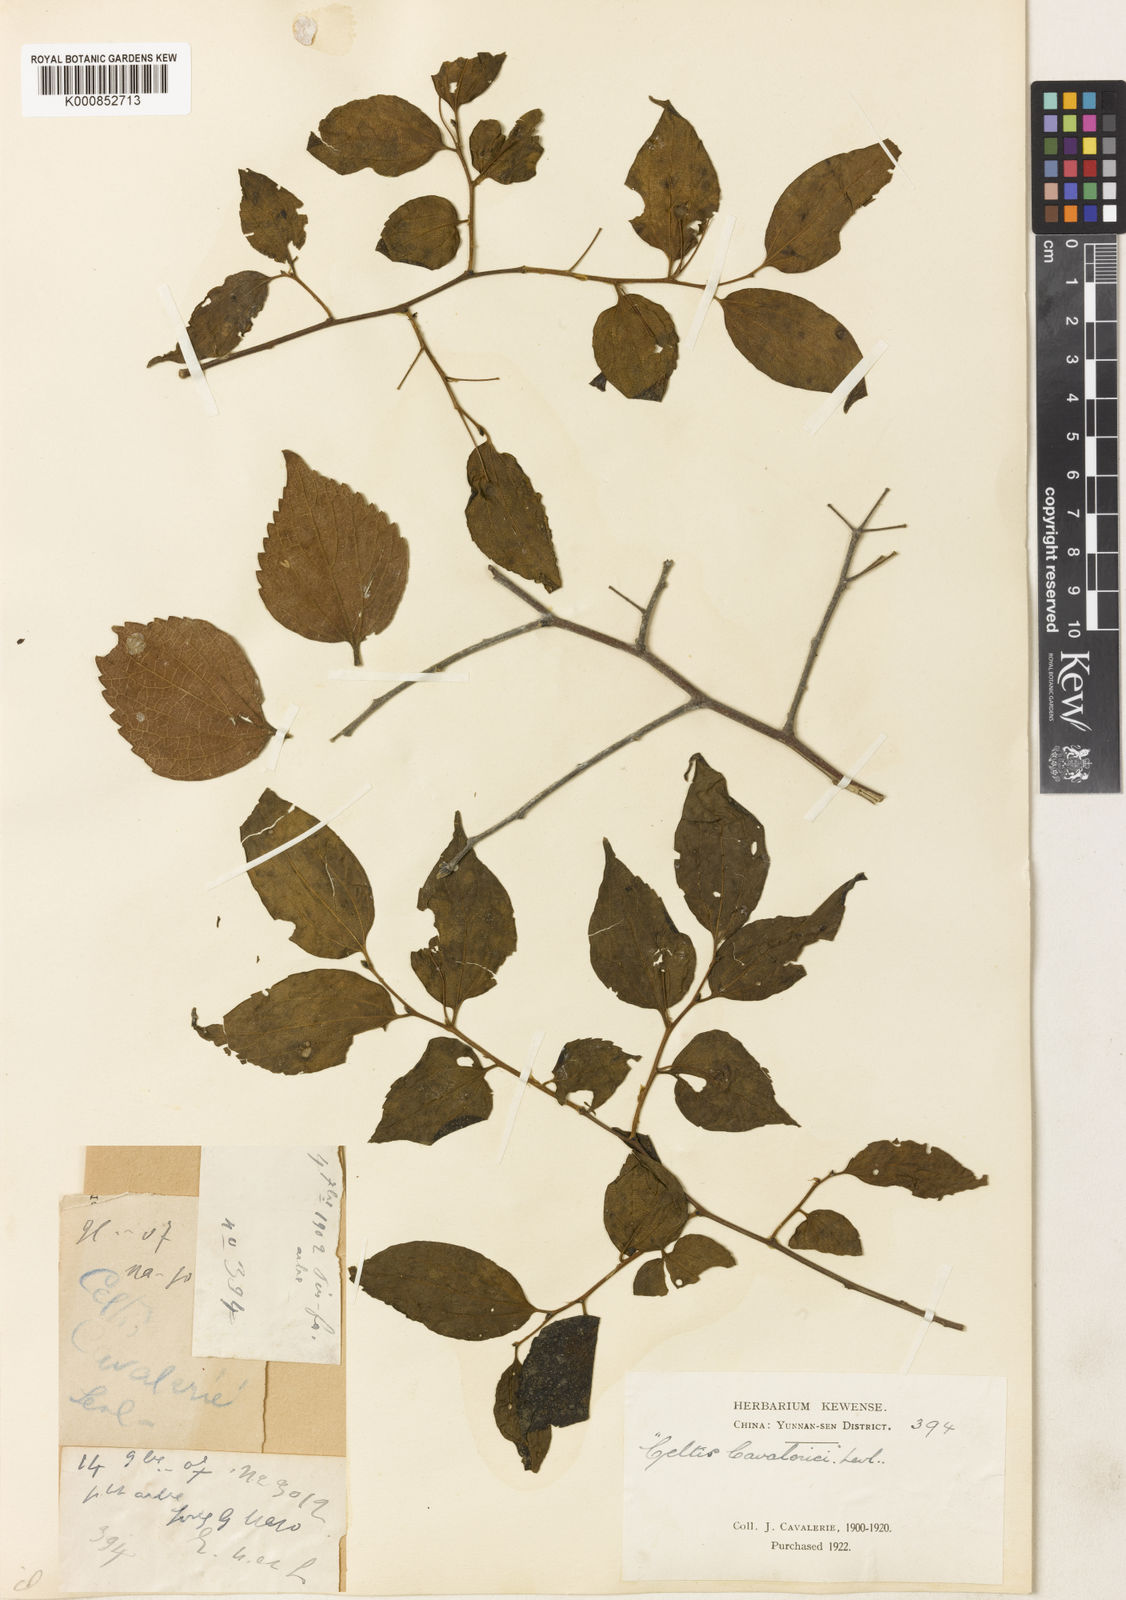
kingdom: Plantae
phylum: Tracheophyta
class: Magnoliopsida
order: Rosales
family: Cannabaceae
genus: Celtis
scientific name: Celtis biondii
